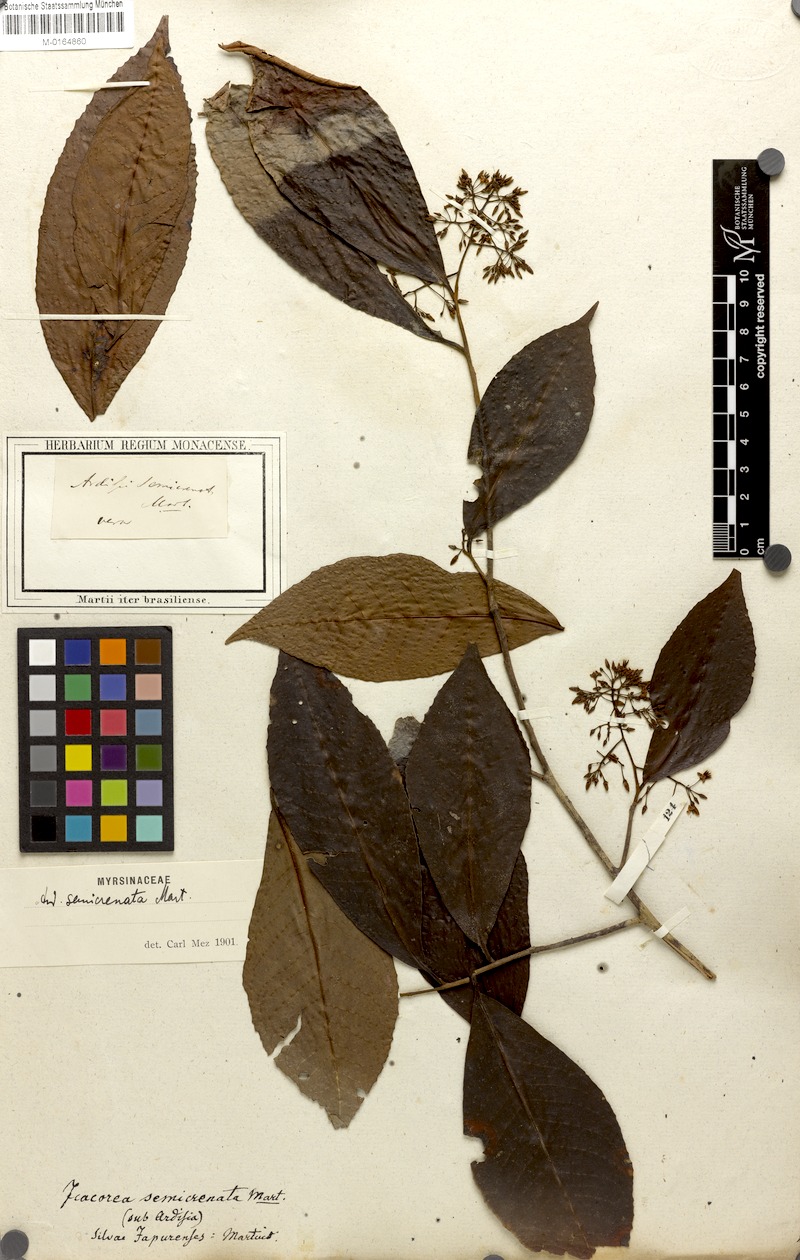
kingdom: Plantae
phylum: Tracheophyta
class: Magnoliopsida
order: Ericales
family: Primulaceae
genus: Ardisia
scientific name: Ardisia guianensis
